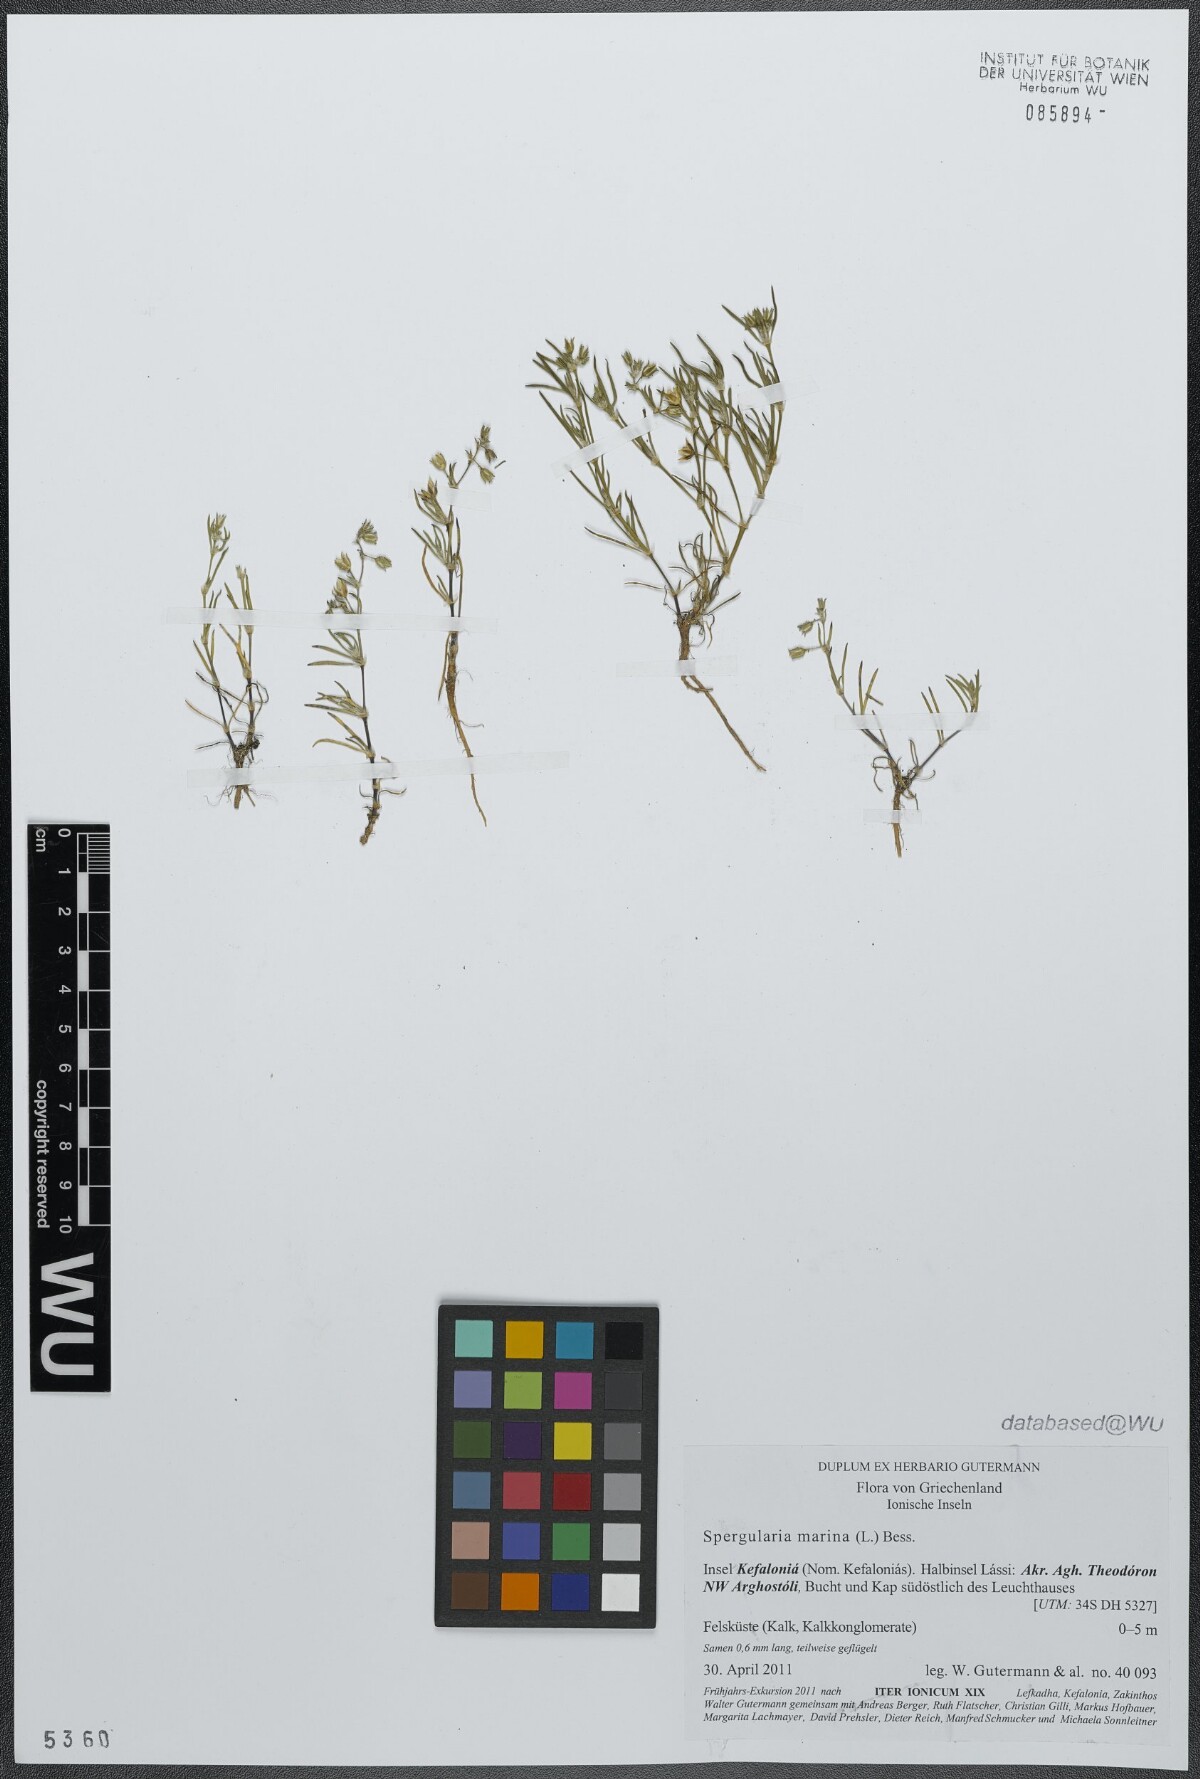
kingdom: Plantae
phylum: Tracheophyta
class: Magnoliopsida
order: Caryophyllales
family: Caryophyllaceae
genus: Spergularia
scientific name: Spergularia marina
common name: Lesser sea-spurrey
